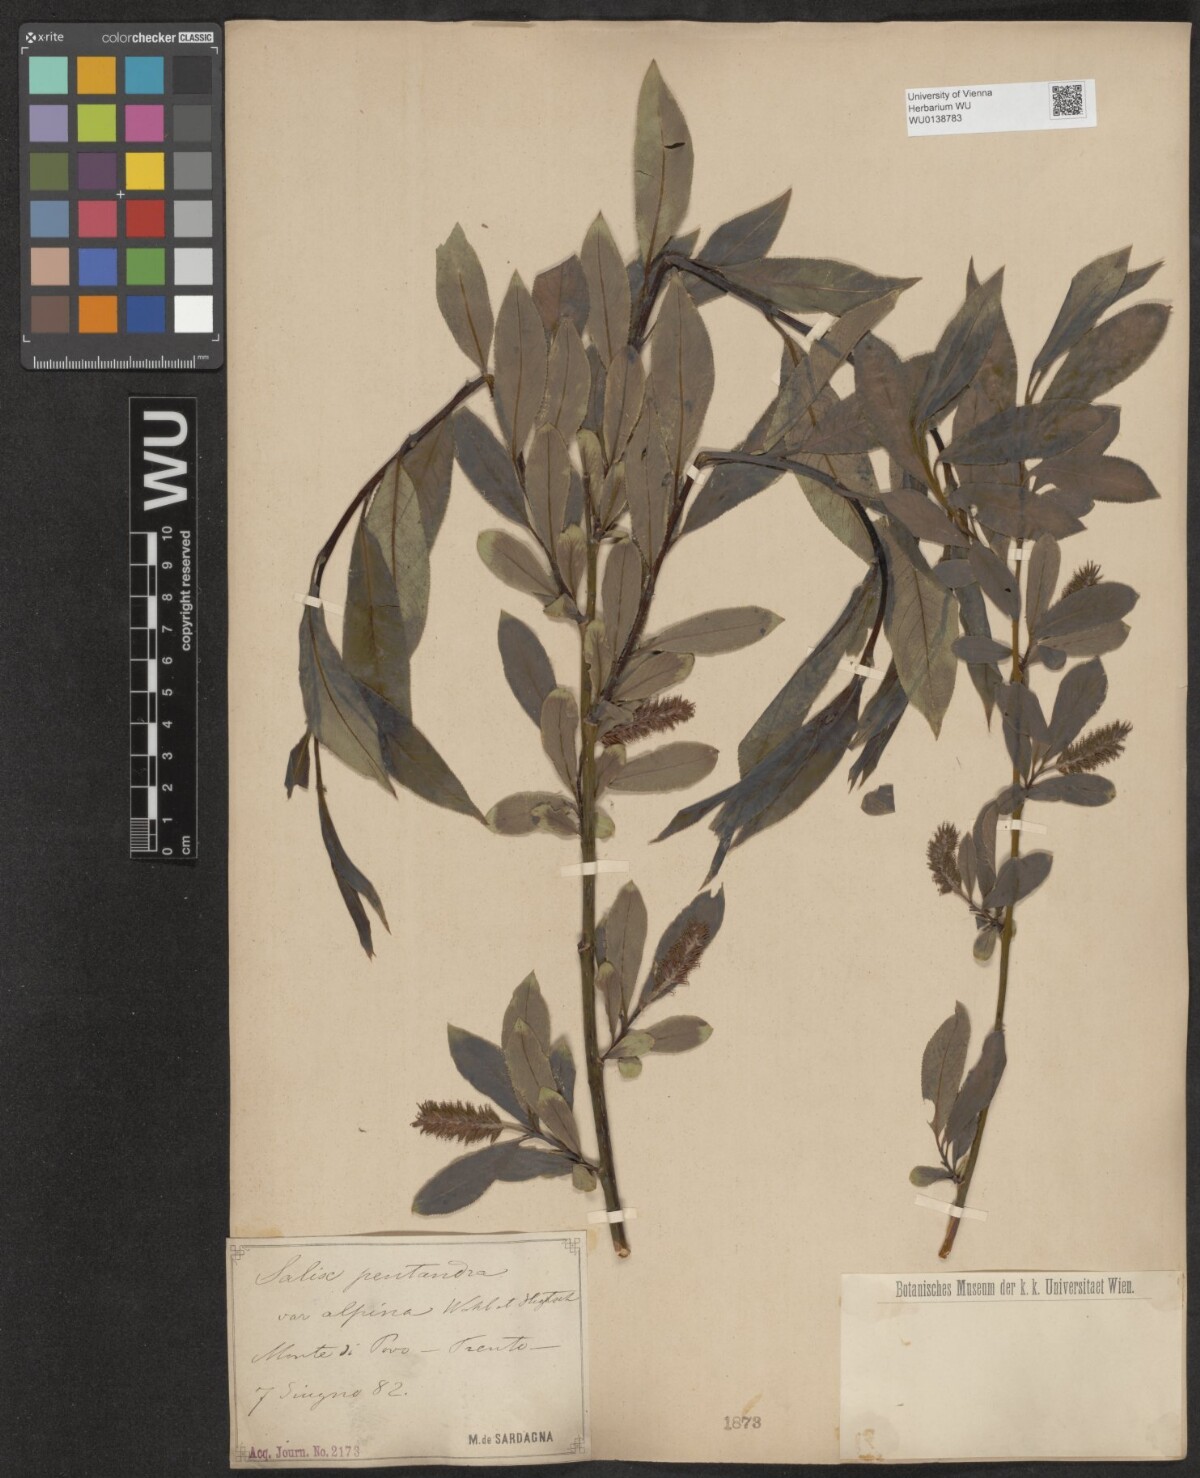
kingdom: Plantae
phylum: Tracheophyta
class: Magnoliopsida
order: Malpighiales
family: Salicaceae
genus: Salix
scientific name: Salix pentandra
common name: Bay willow
